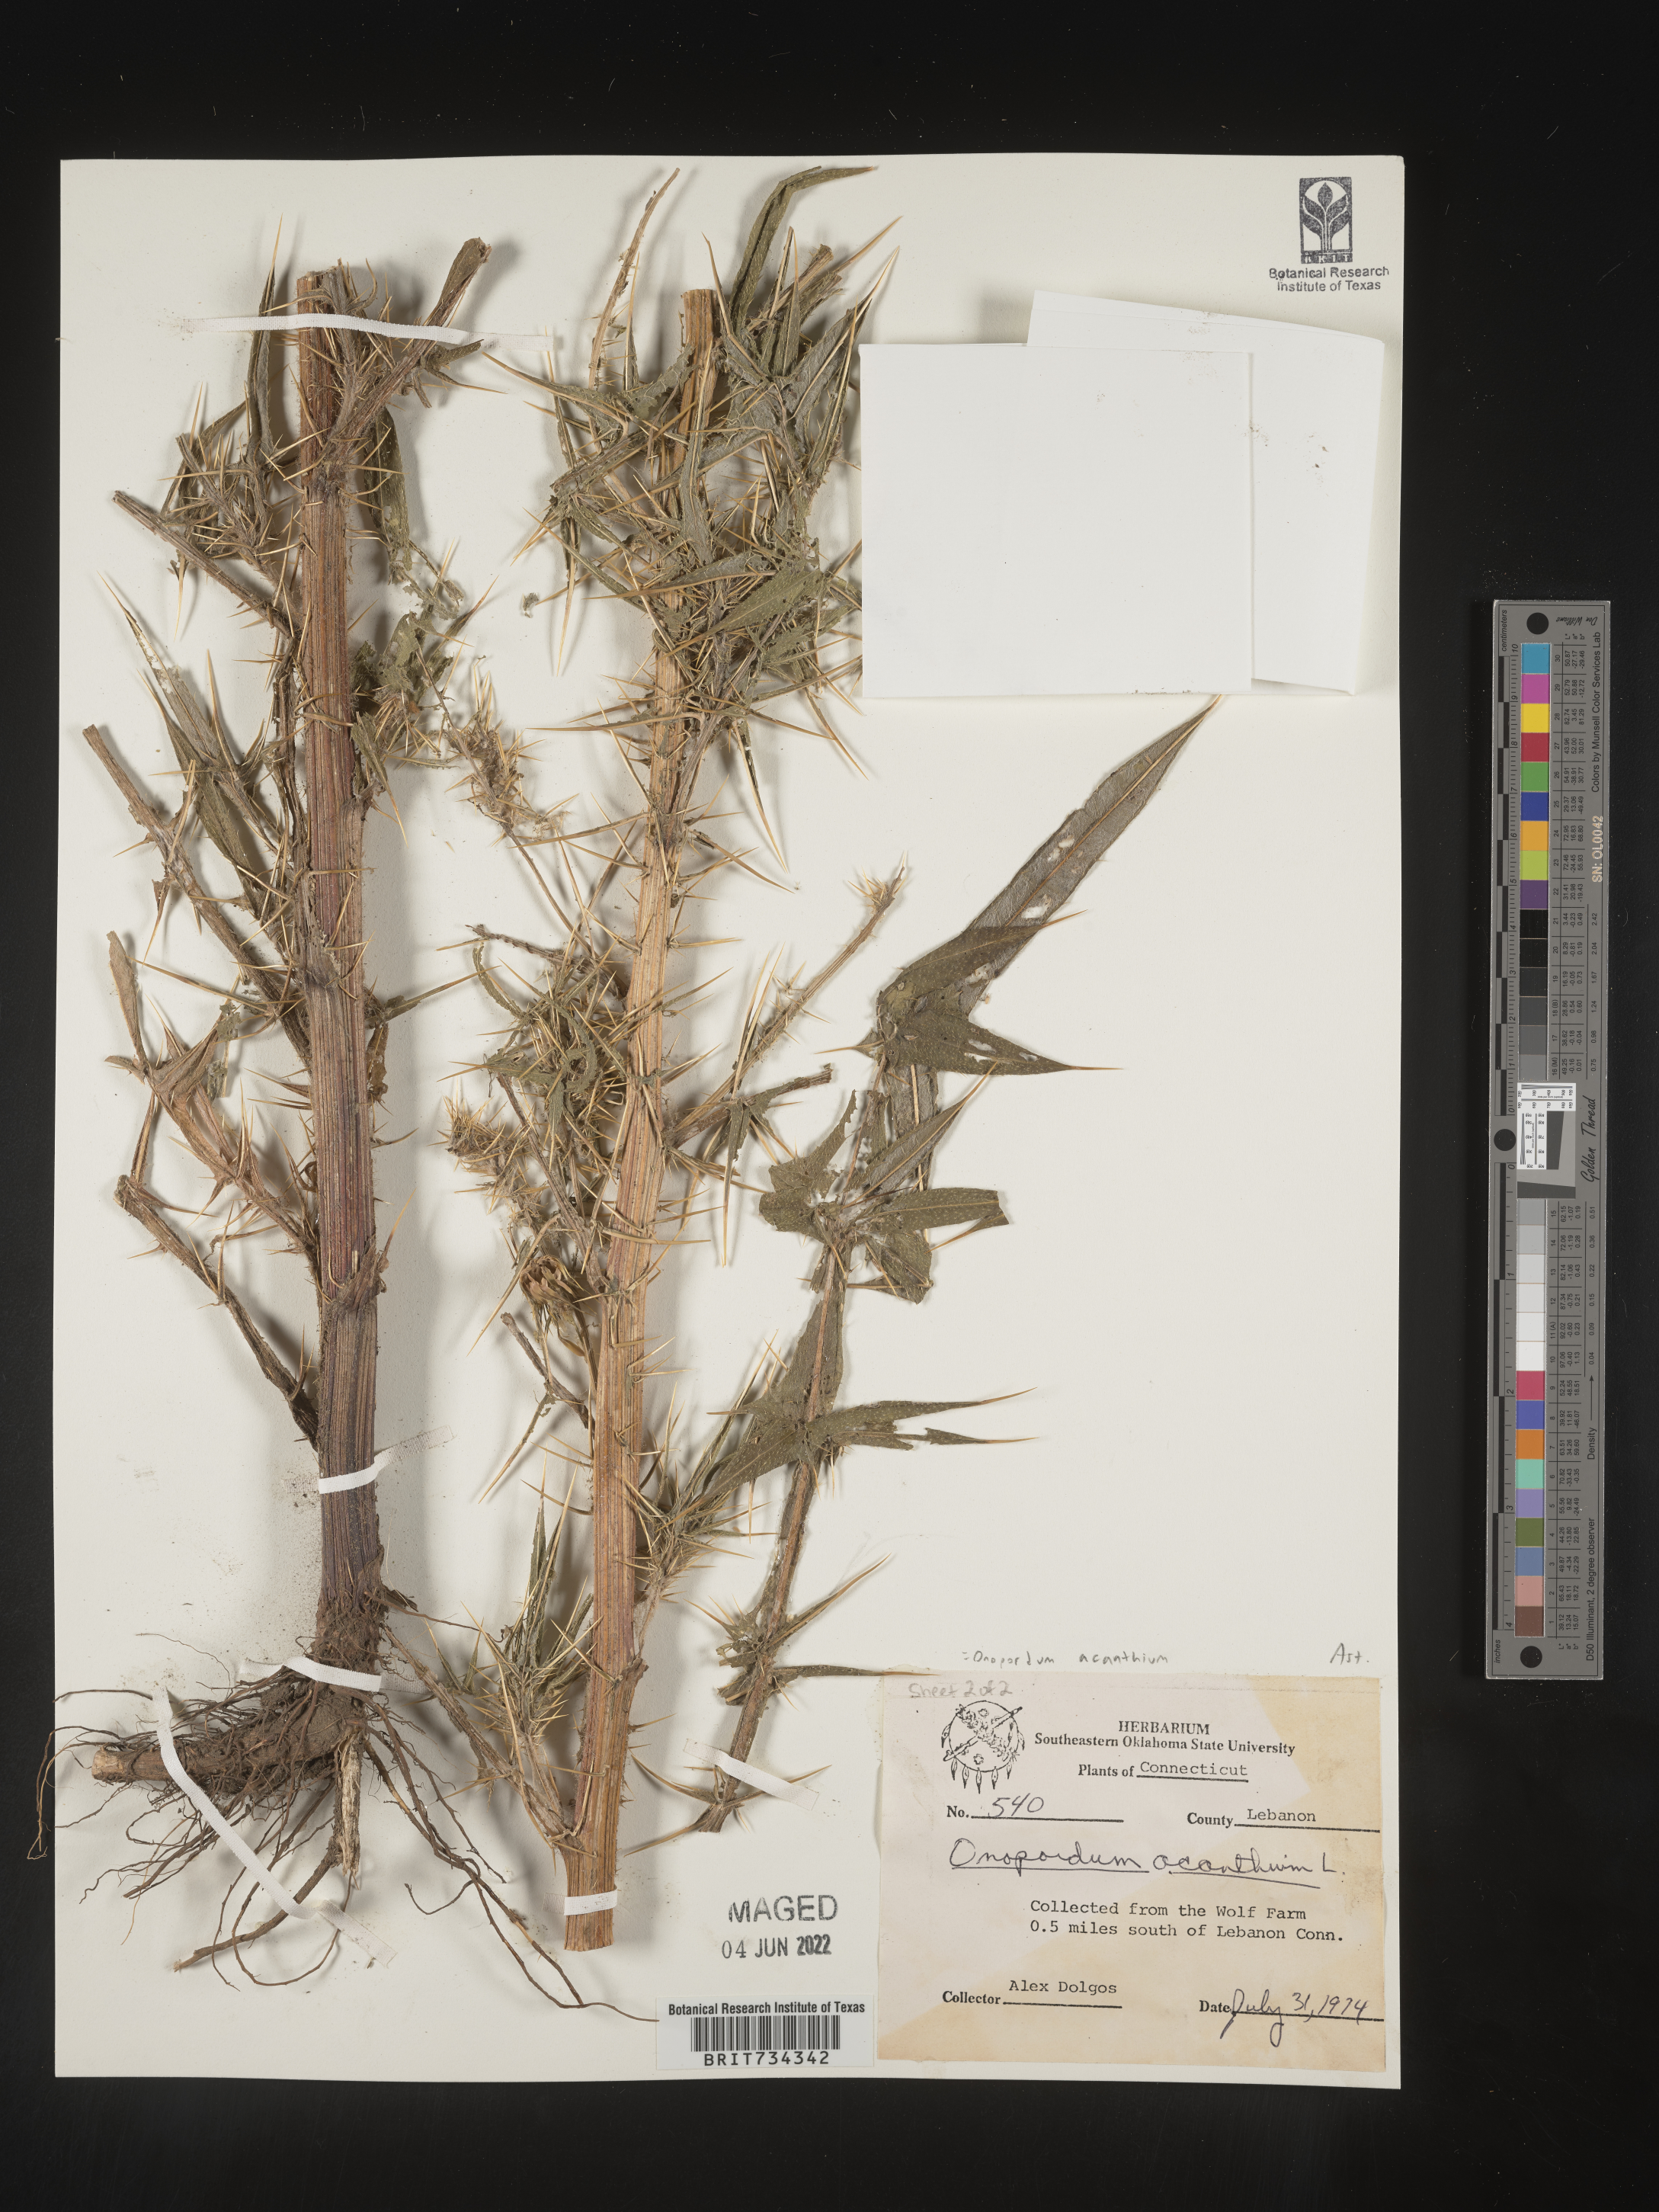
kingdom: Plantae
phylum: Tracheophyta
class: Magnoliopsida
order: Asterales
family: Asteraceae
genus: Onopordum
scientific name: Onopordum acanthium
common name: Scotch thistle
